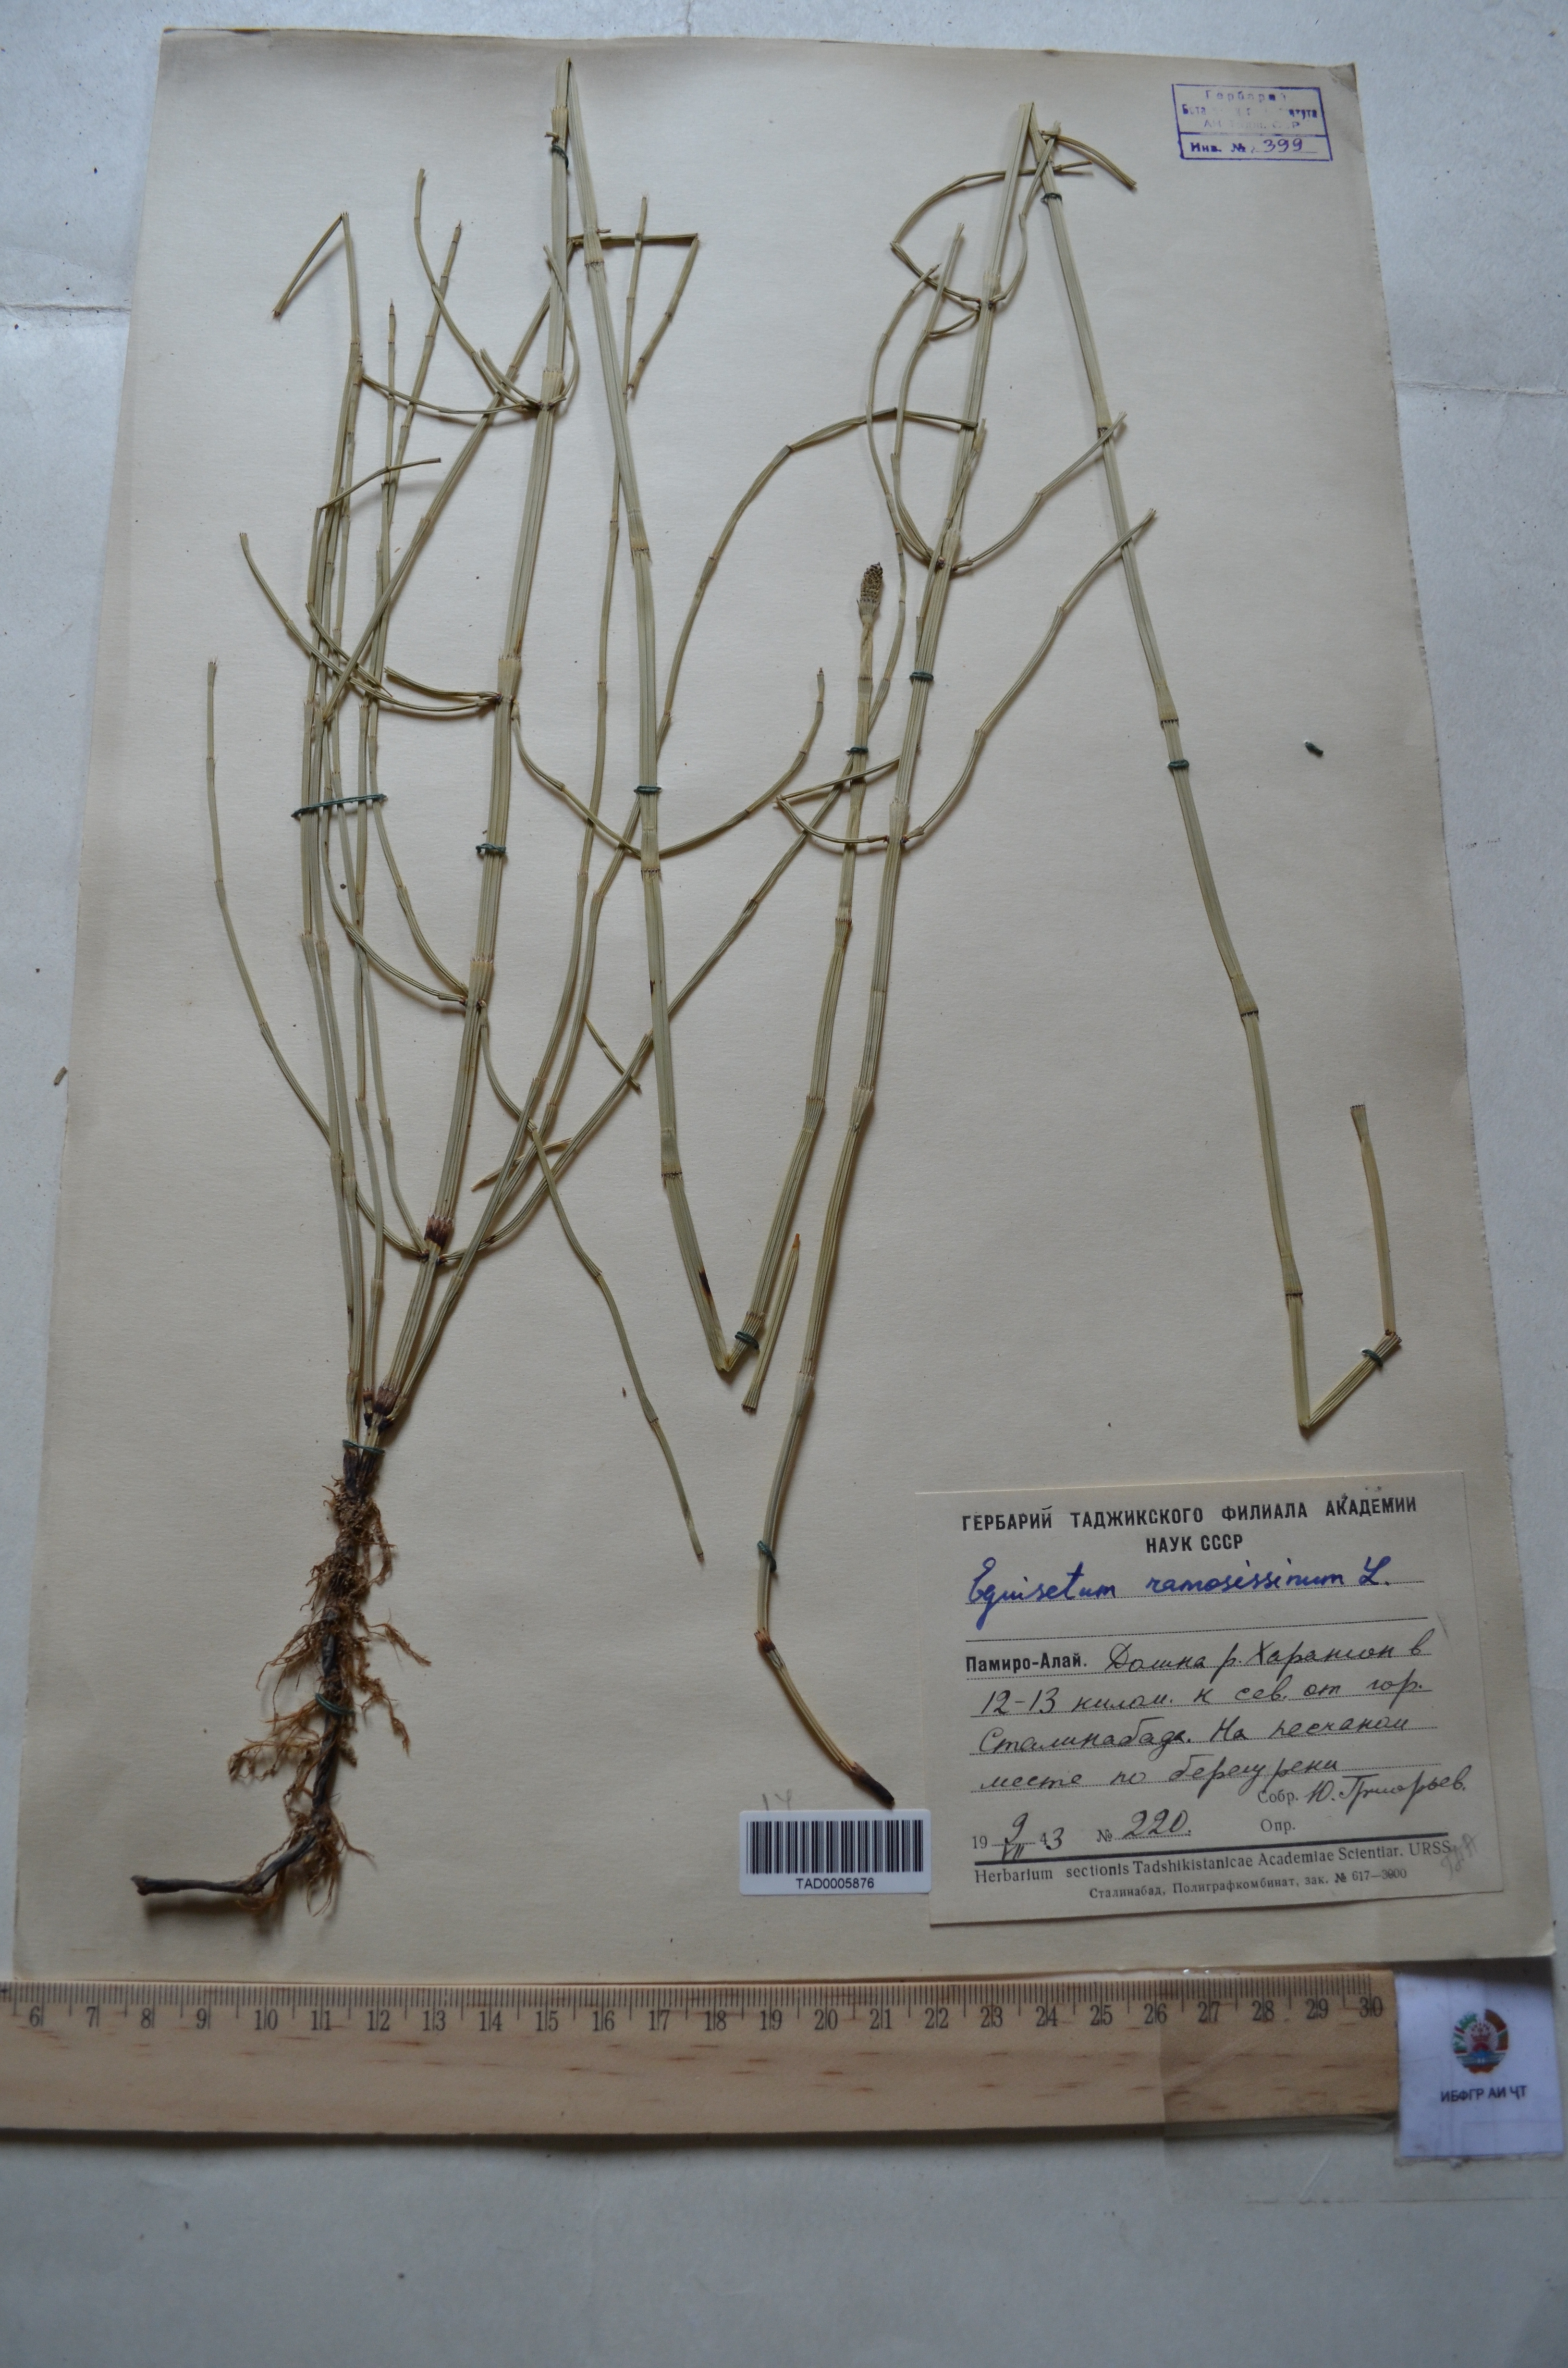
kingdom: Plantae
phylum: Tracheophyta
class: Polypodiopsida
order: Equisetales
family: Equisetaceae
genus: Equisetum
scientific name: Equisetum ramosissimum
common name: Branched horsetail
